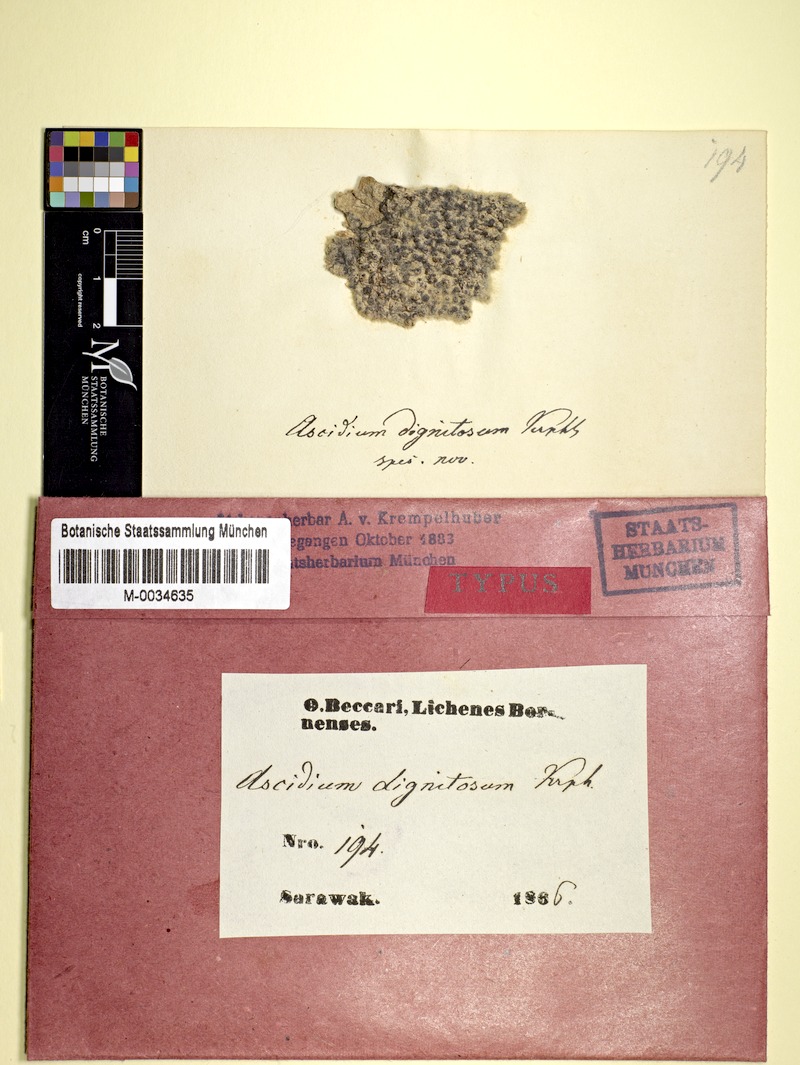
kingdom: Fungi
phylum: Ascomycota
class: Lecanoromycetes
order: Ostropales
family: Graphidaceae
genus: Thelotrema
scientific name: Thelotrema dignitosum
